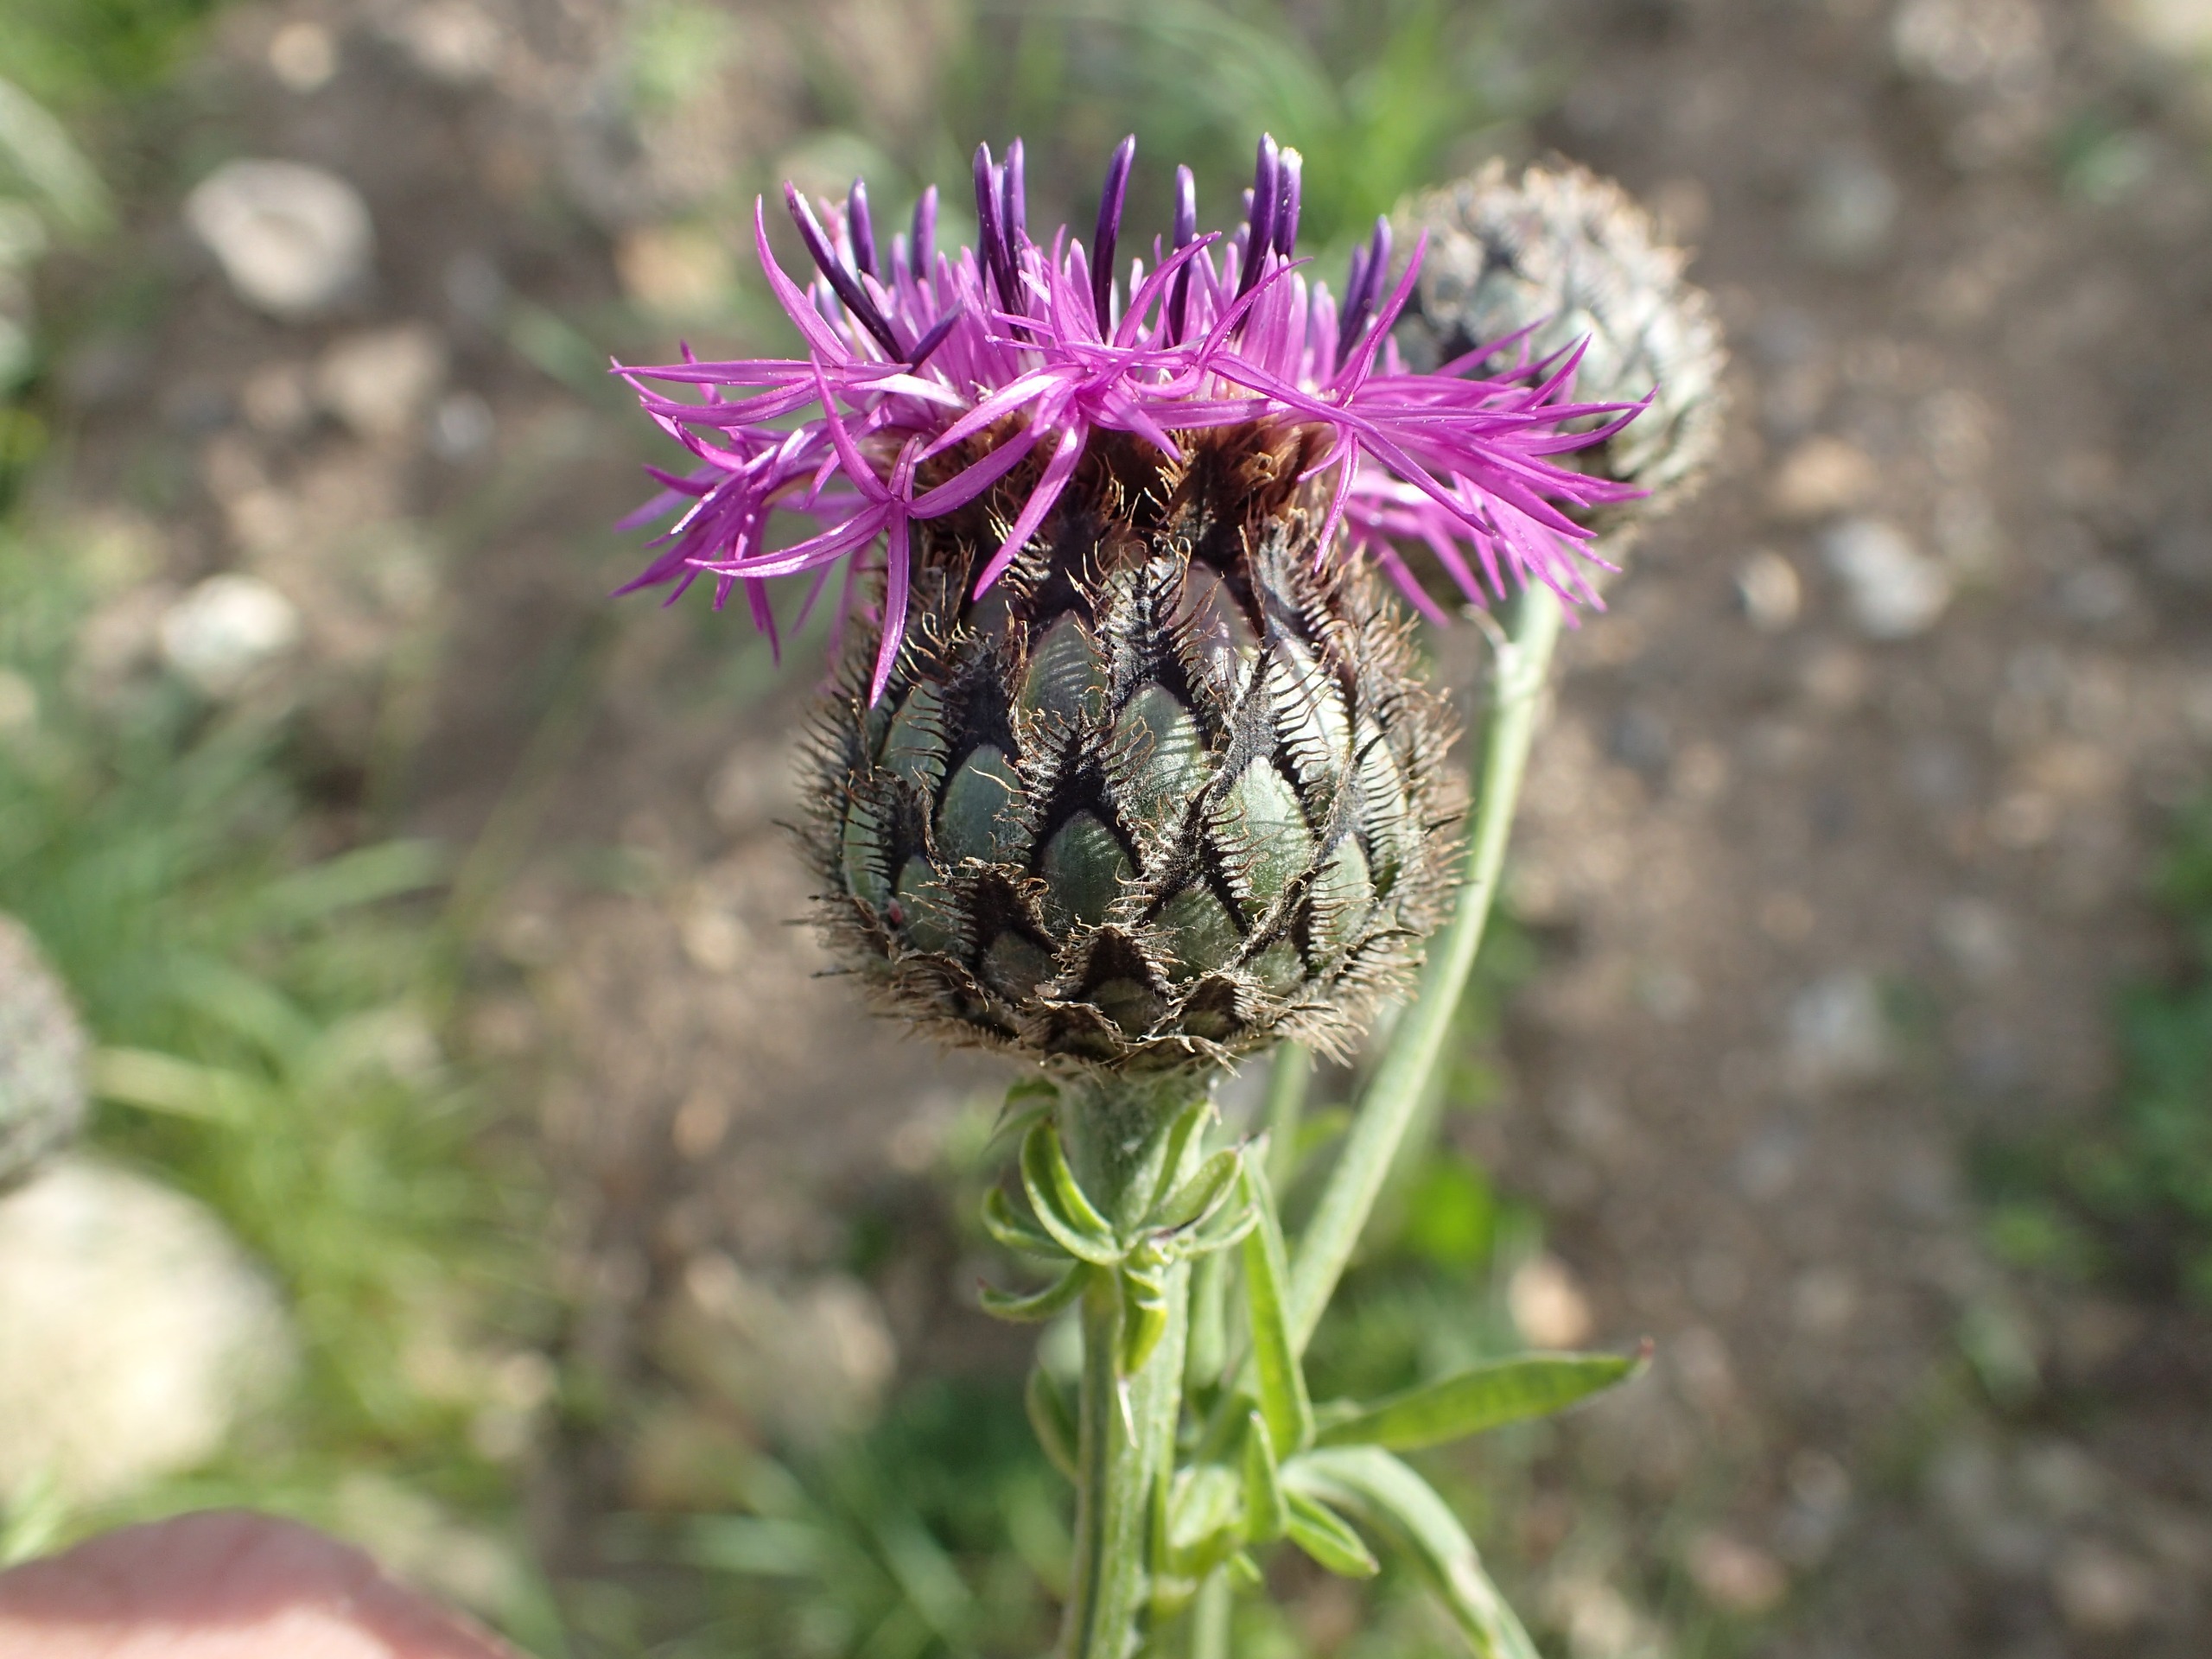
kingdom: Plantae
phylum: Tracheophyta
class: Magnoliopsida
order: Asterales
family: Asteraceae
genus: Centaurea
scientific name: Centaurea scabiosa
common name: Stor knopurt
